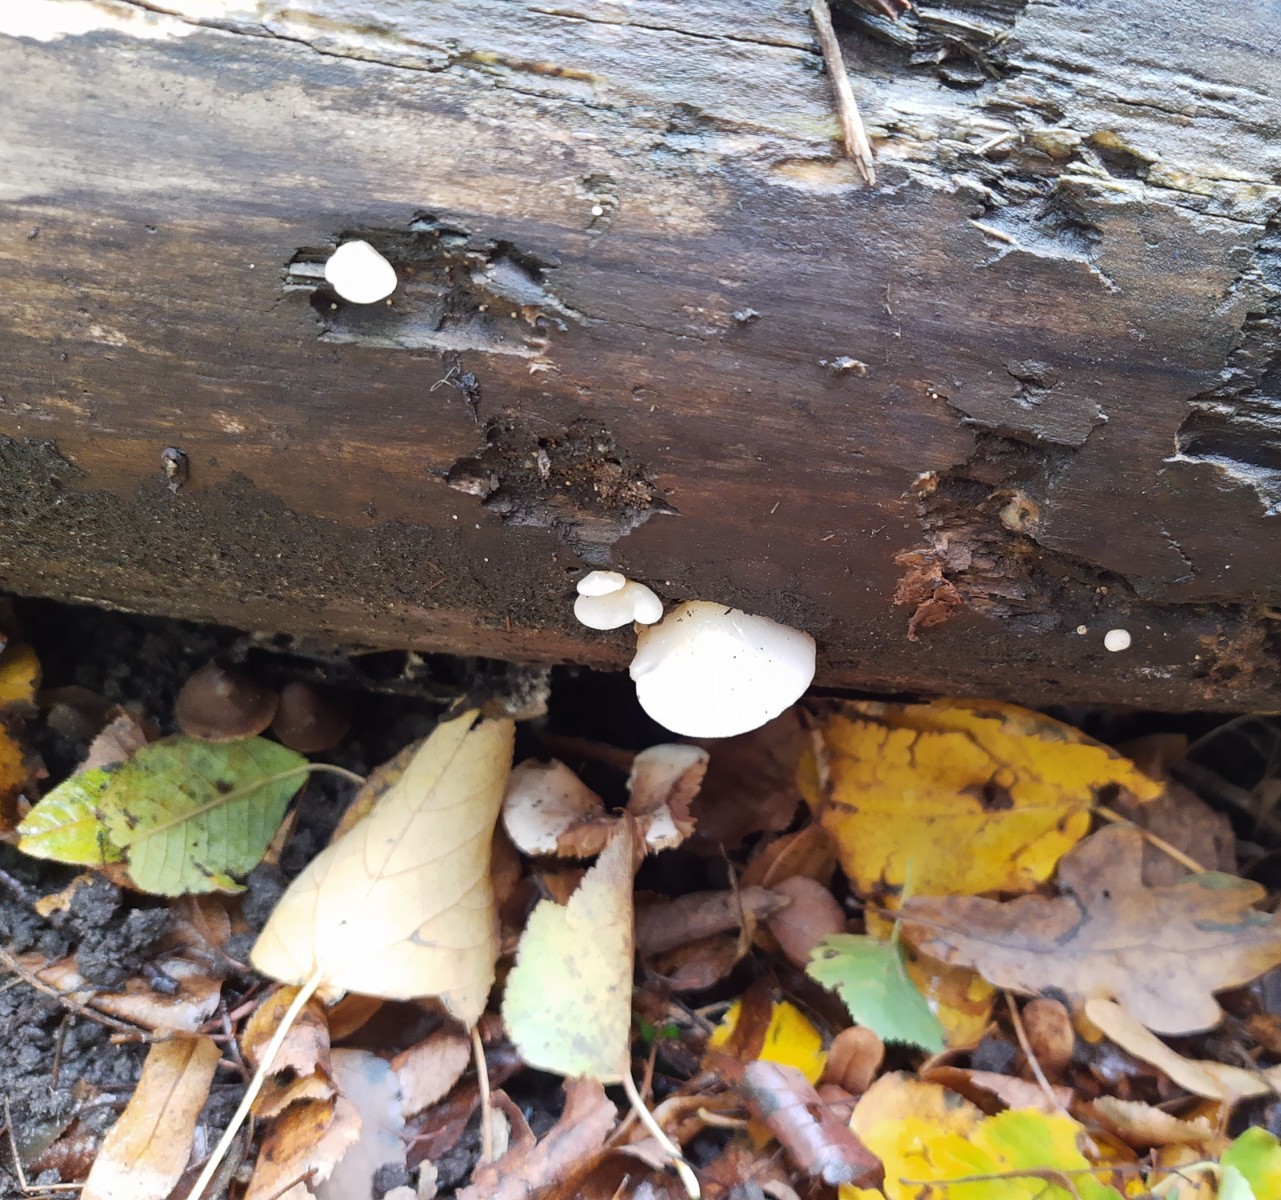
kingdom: Fungi
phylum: Basidiomycota
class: Agaricomycetes
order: Agaricales
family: Crepidotaceae
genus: Crepidotus
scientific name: Crepidotus mollis
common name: blød muslingesvamp
